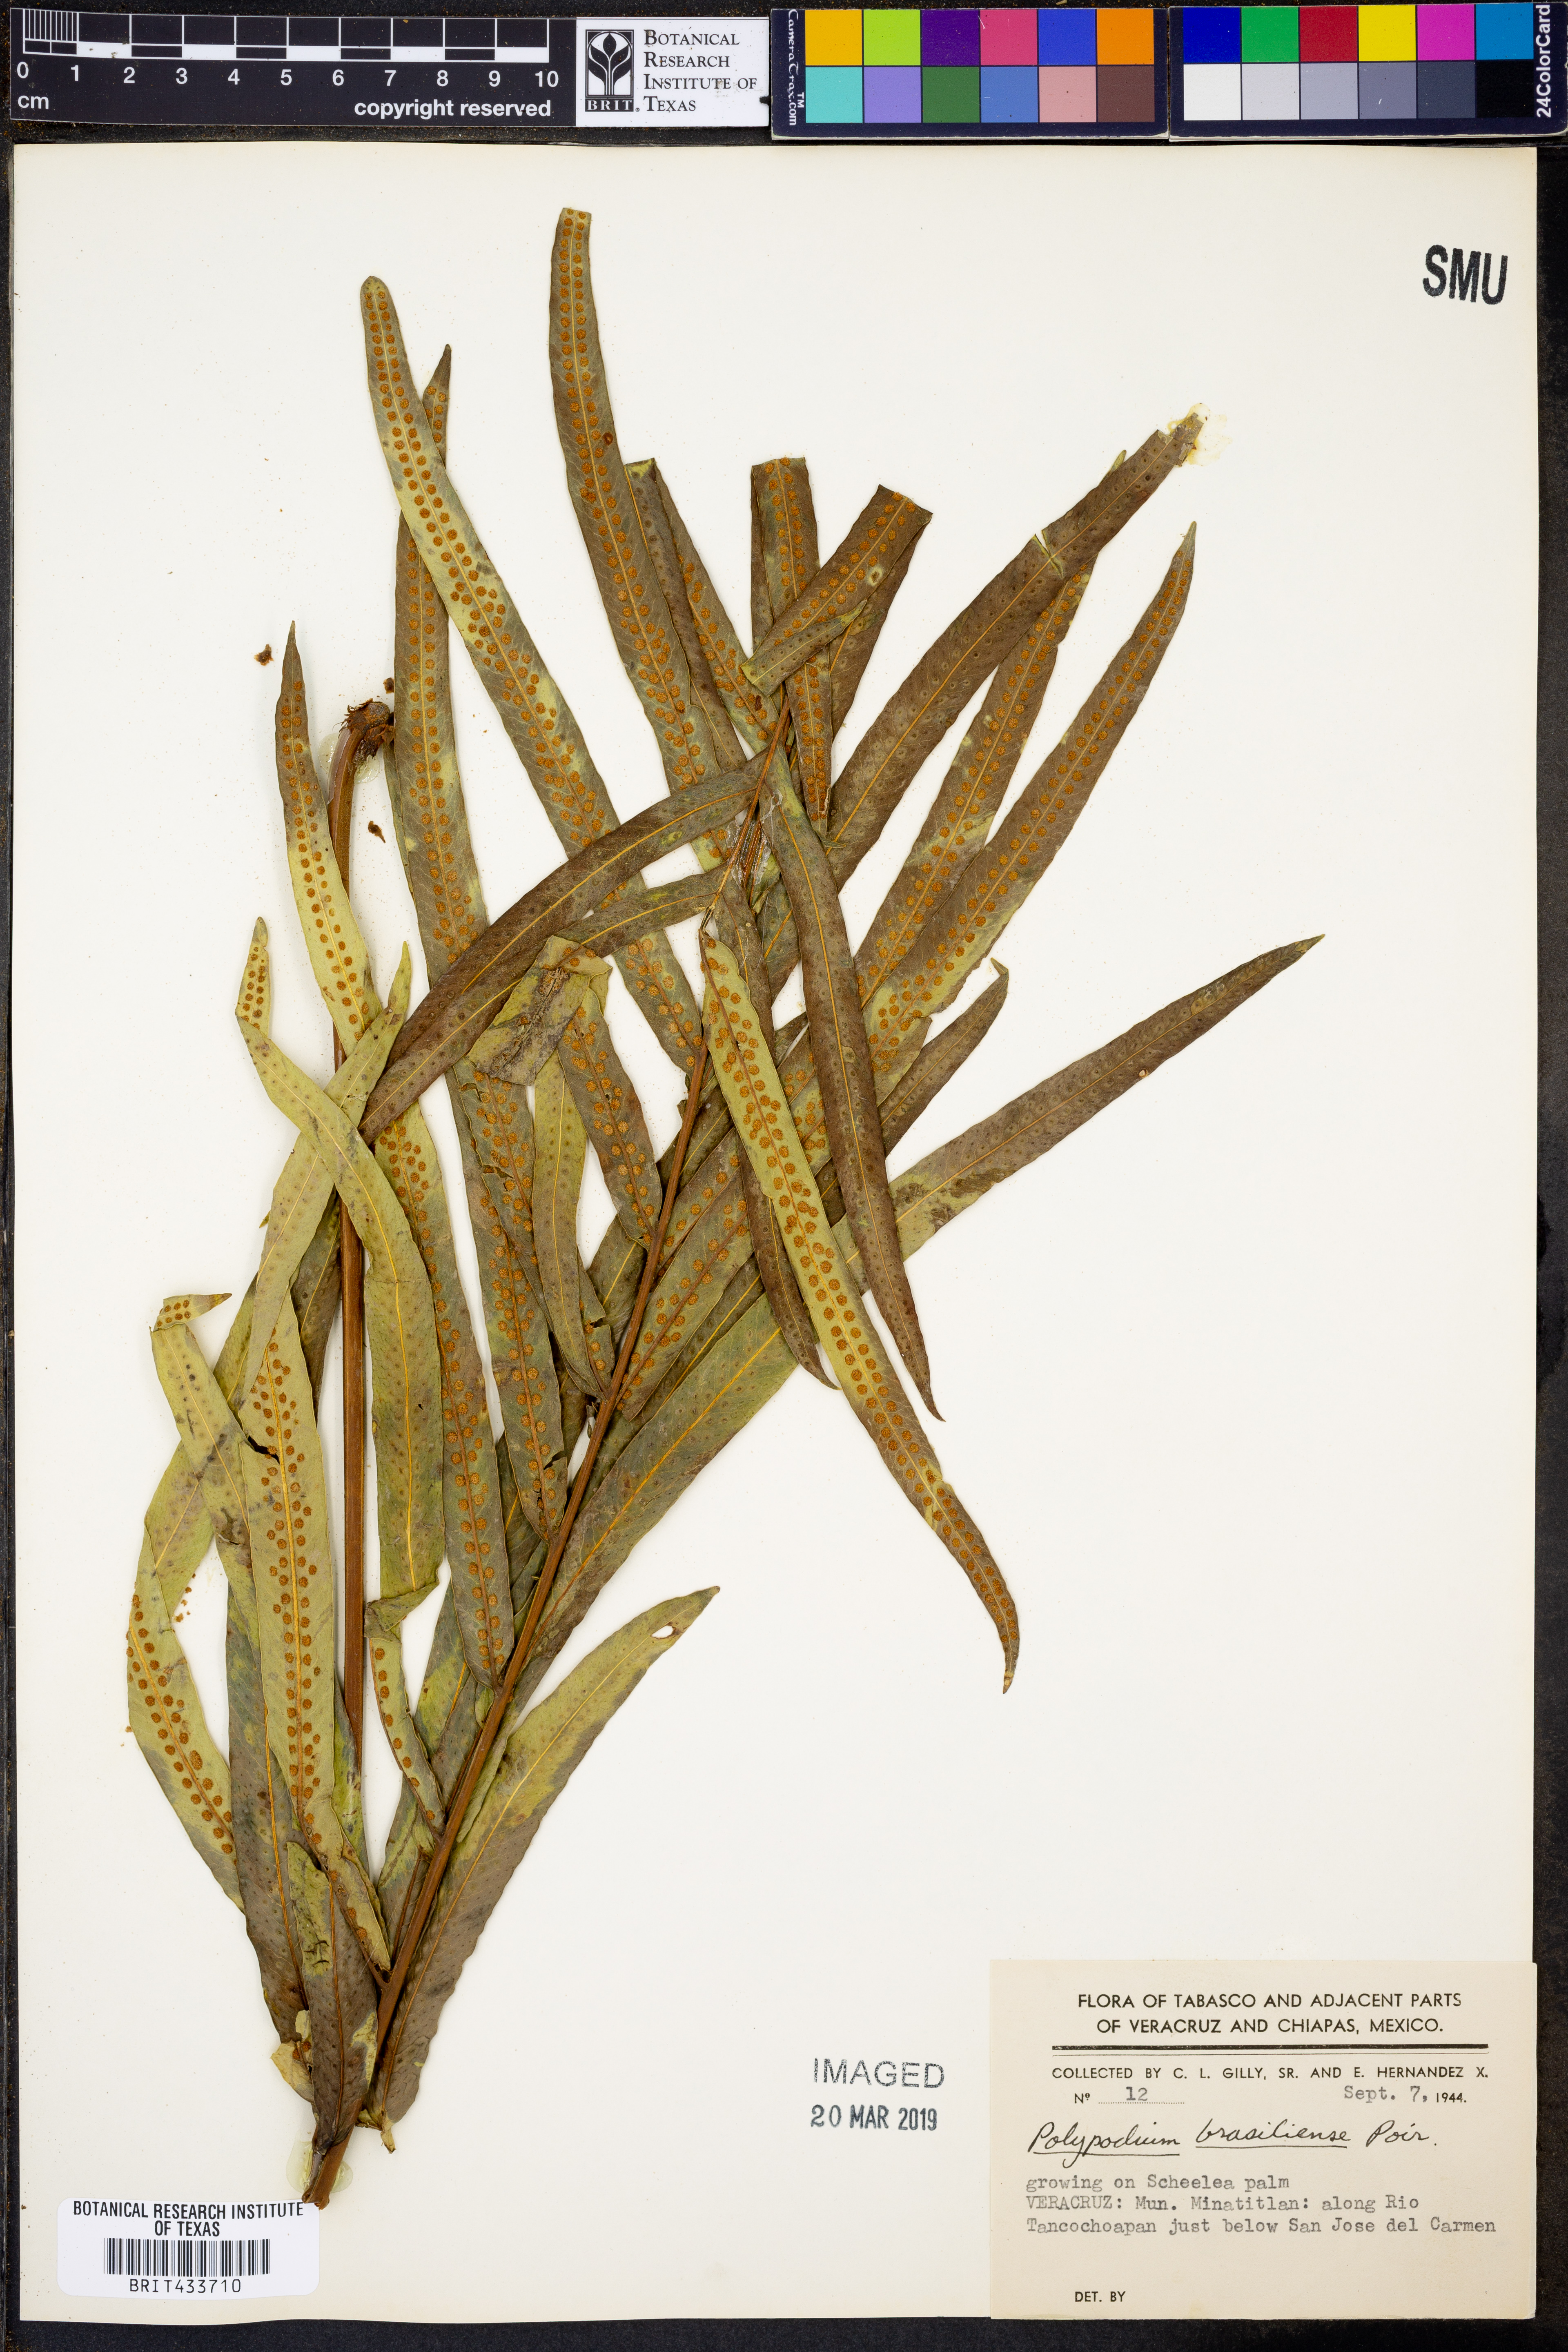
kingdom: Plantae
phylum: Tracheophyta
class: Polypodiopsida
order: Polypodiales
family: Polypodiaceae
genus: Serpocaulon
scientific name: Serpocaulon triseriale
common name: Angle-vein fern
